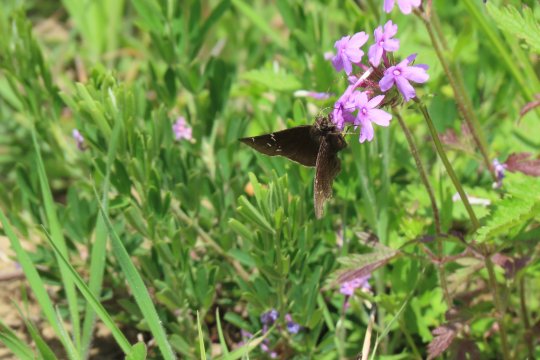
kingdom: Animalia
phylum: Arthropoda
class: Insecta
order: Lepidoptera
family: Hesperiidae
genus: Autochton
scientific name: Autochton
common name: Southern Cloudywing
